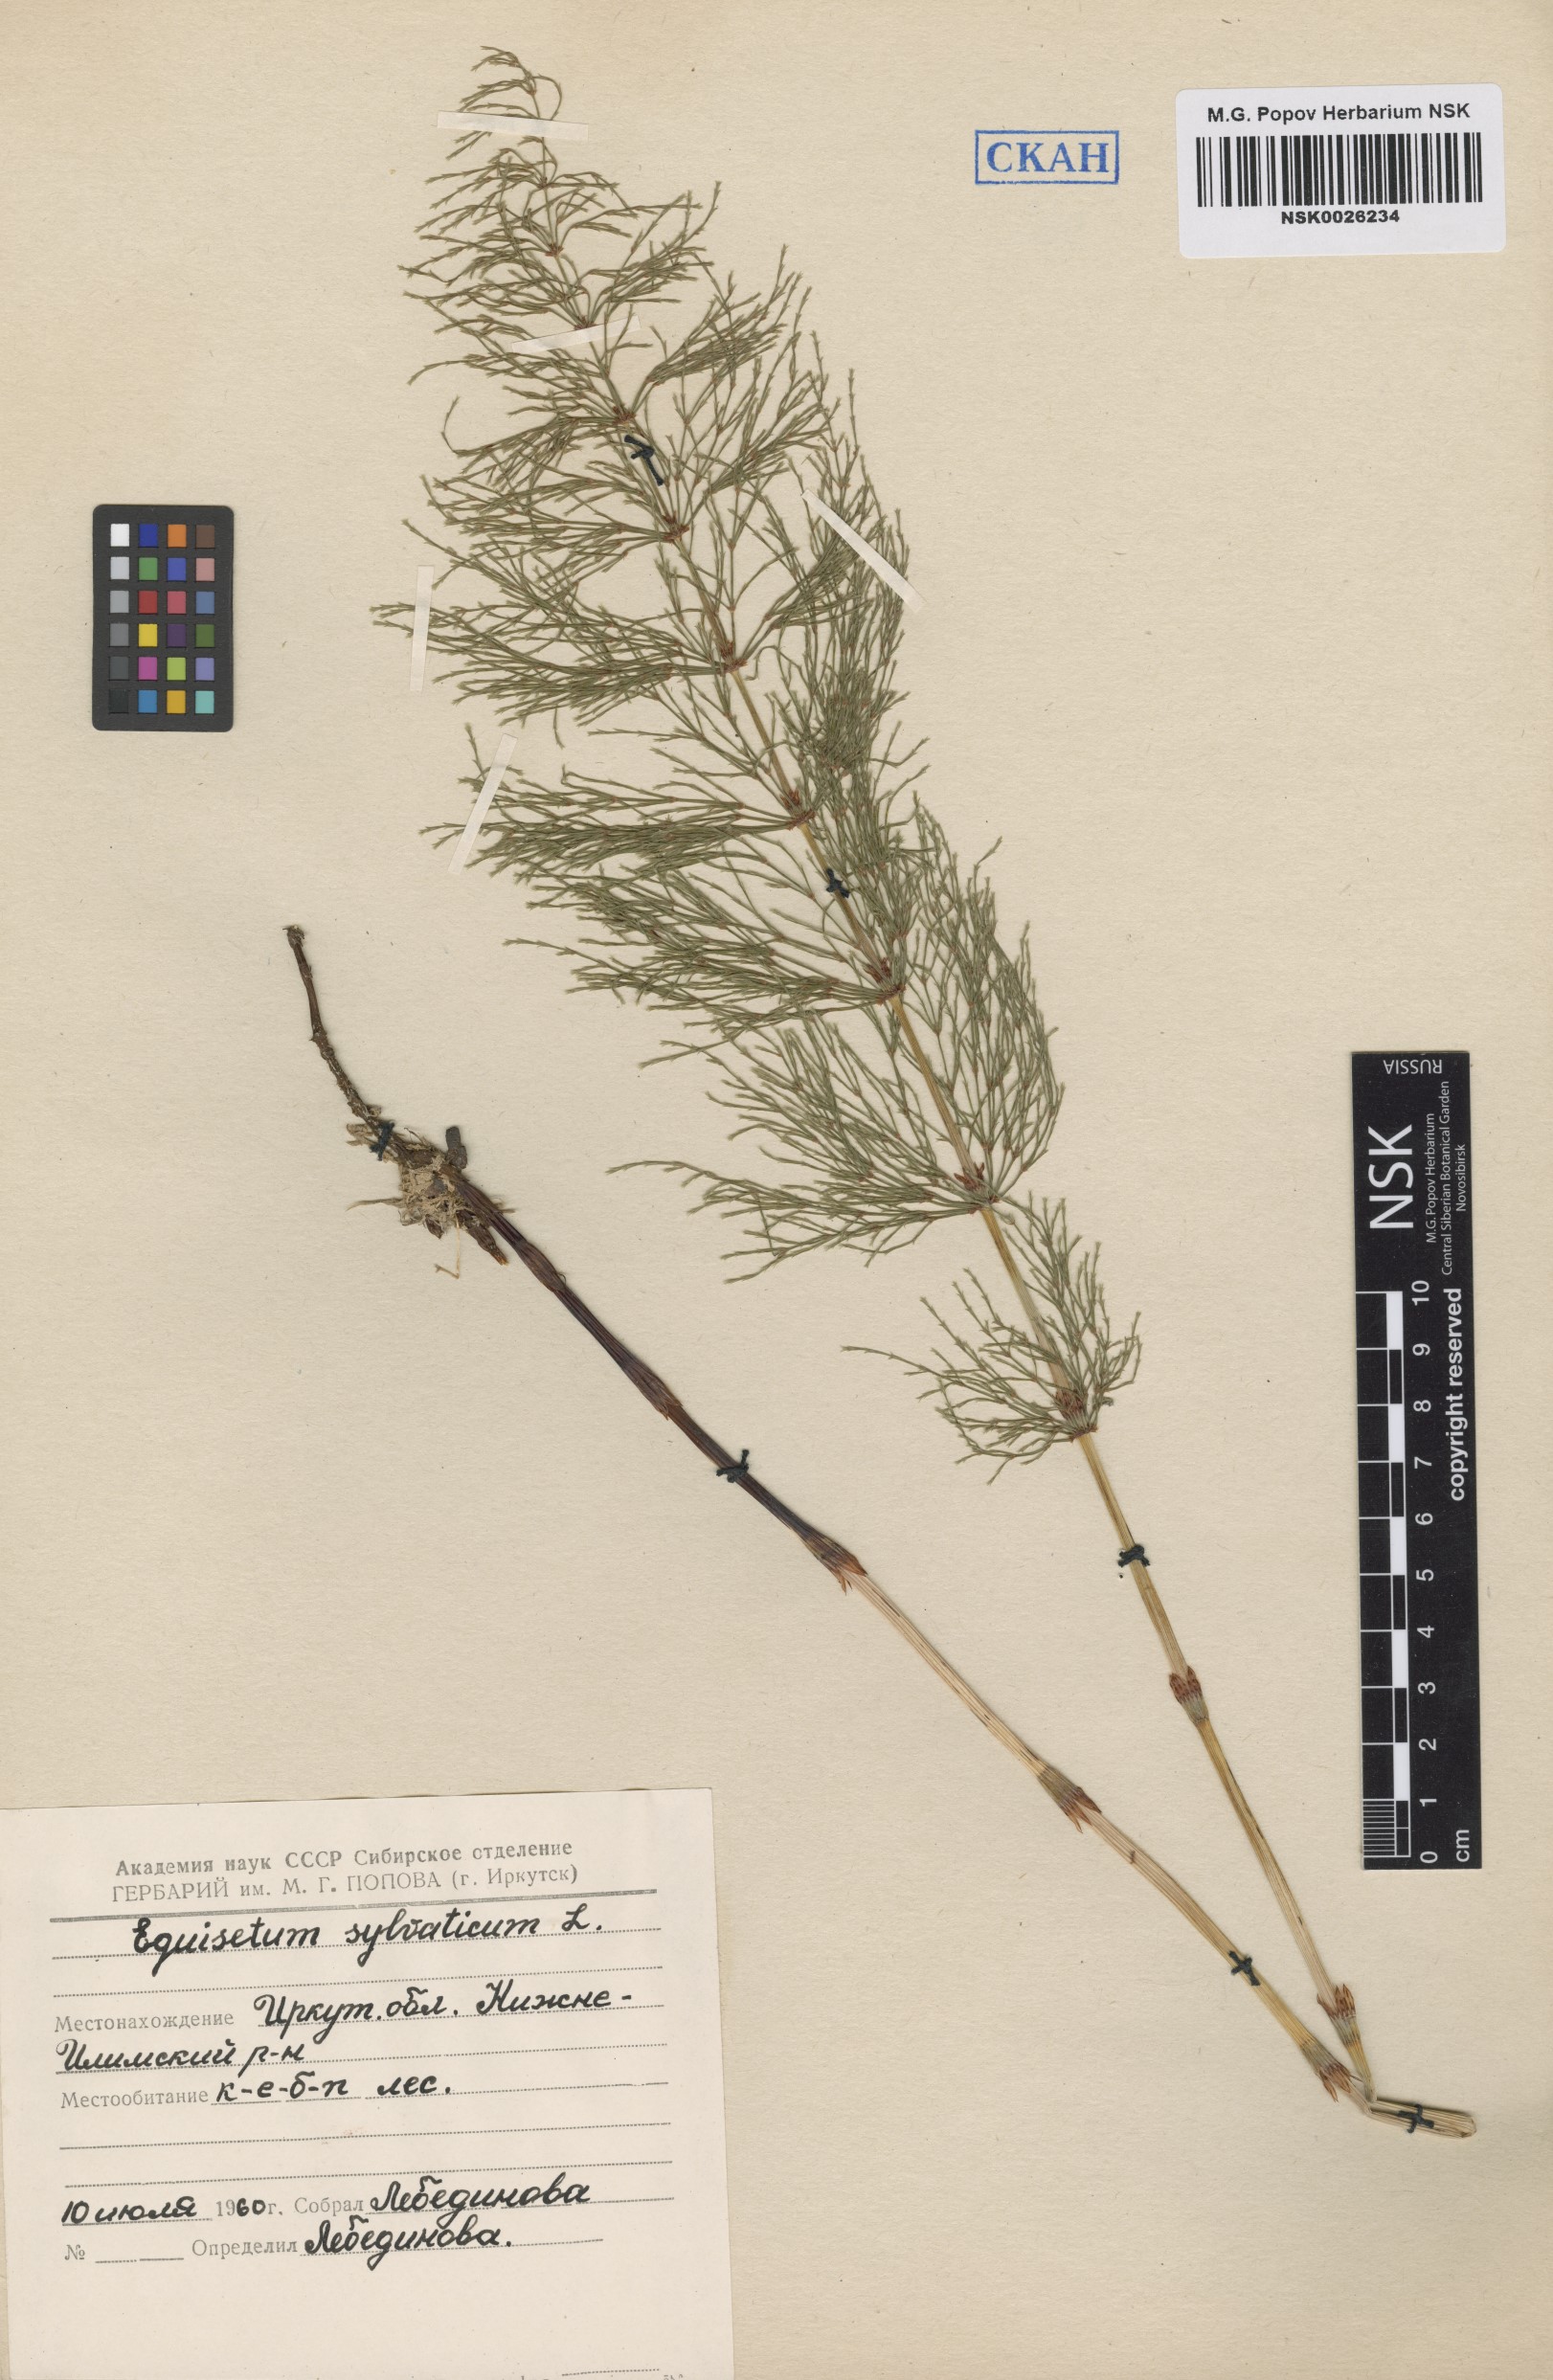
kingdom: Plantae
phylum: Tracheophyta
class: Polypodiopsida
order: Equisetales
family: Equisetaceae
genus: Equisetum
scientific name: Equisetum sylvaticum
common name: Wood horsetail
